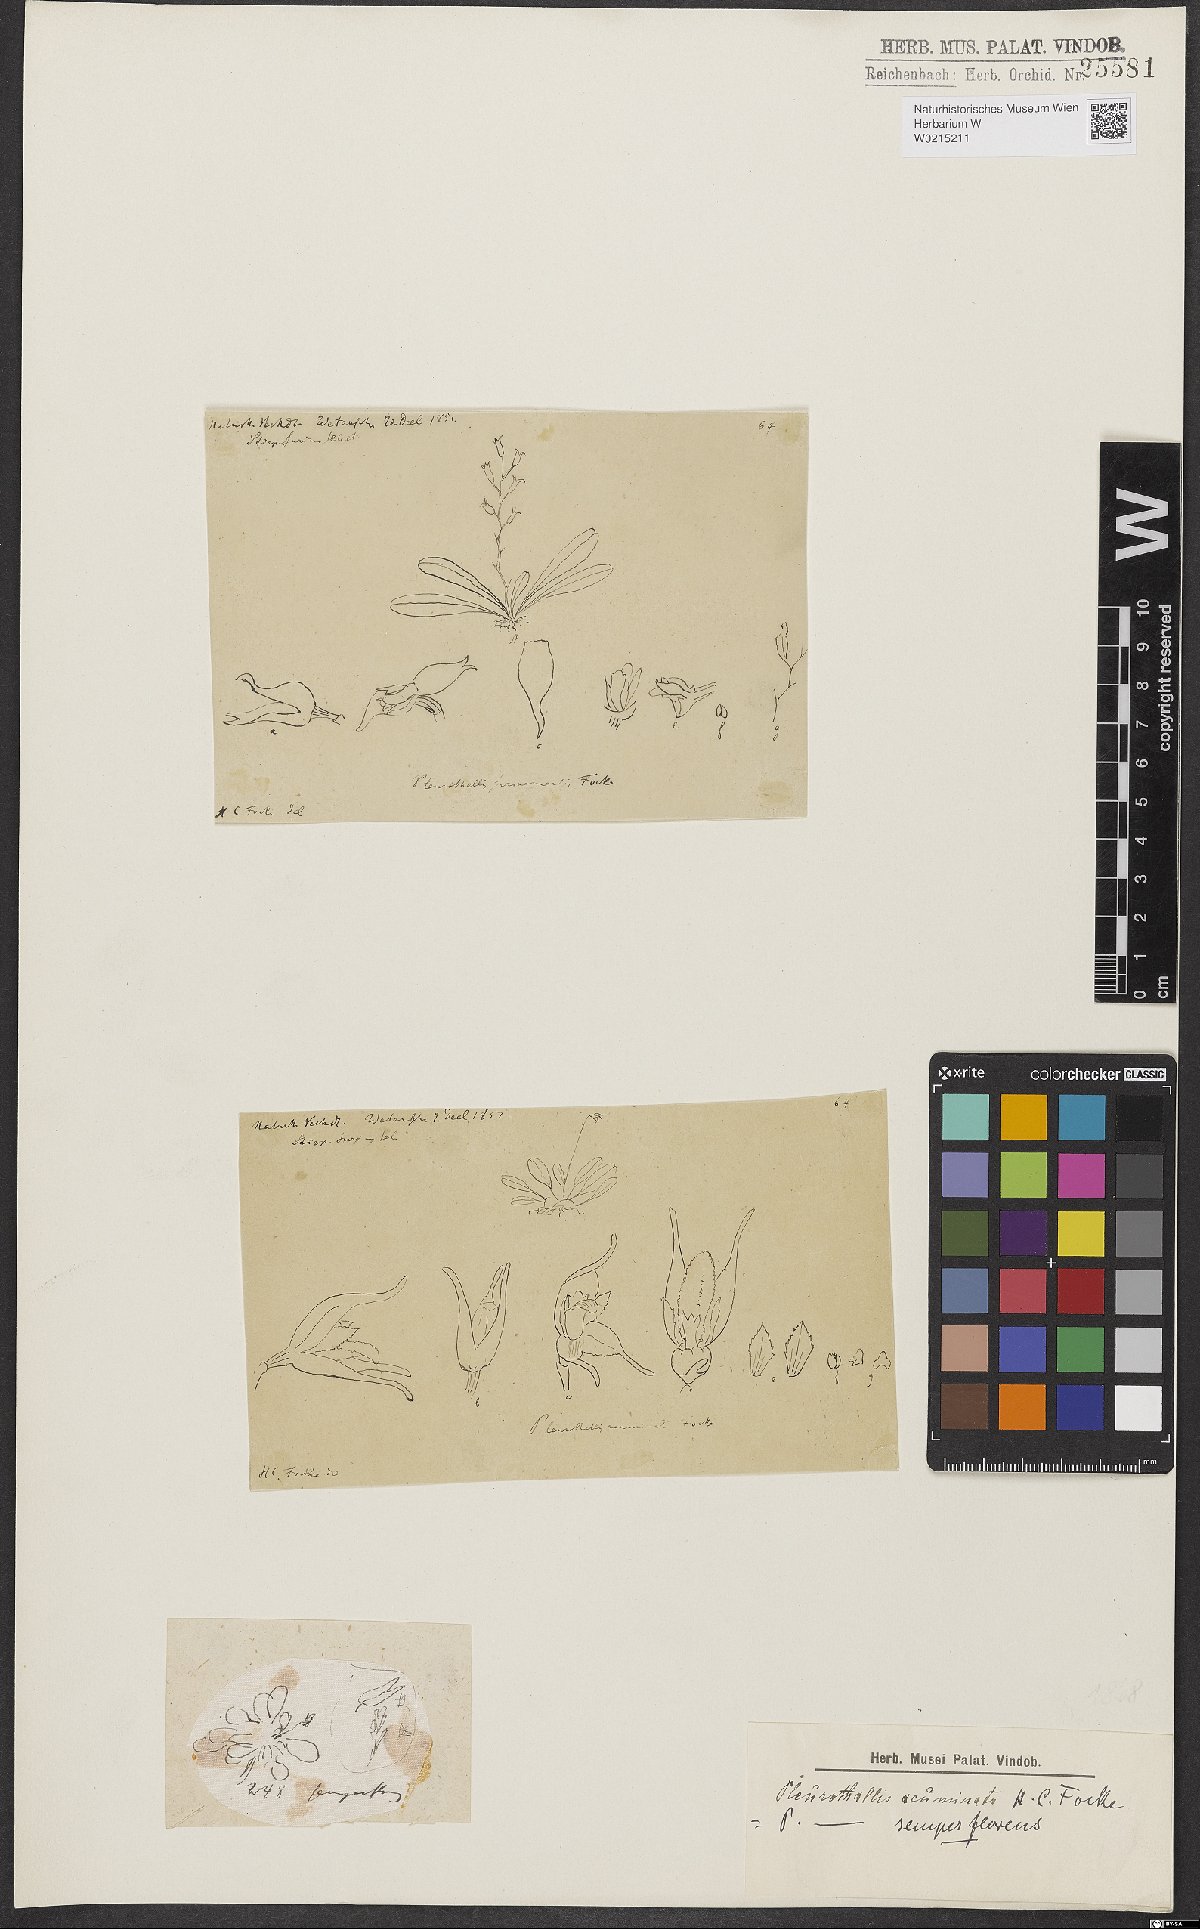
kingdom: Plantae
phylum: Tracheophyta
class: Liliopsida
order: Asparagales
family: Orchidaceae
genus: Stelis
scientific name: Stelis aurea
